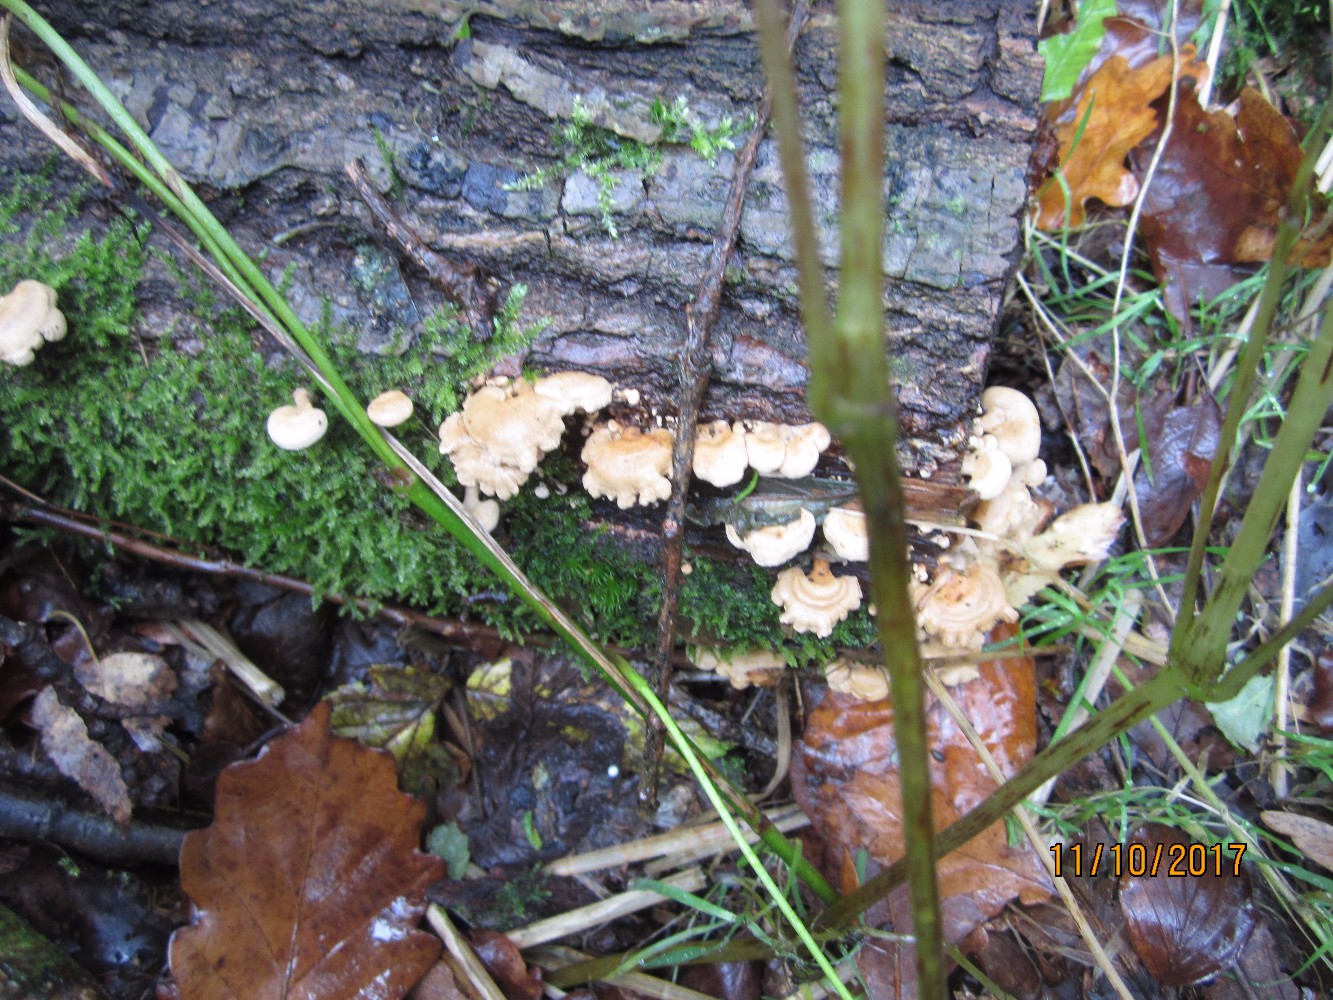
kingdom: Fungi
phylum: Basidiomycota
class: Agaricomycetes
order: Agaricales
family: Mycenaceae
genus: Panellus
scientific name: Panellus stipticus
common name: kliddet epaulethat
